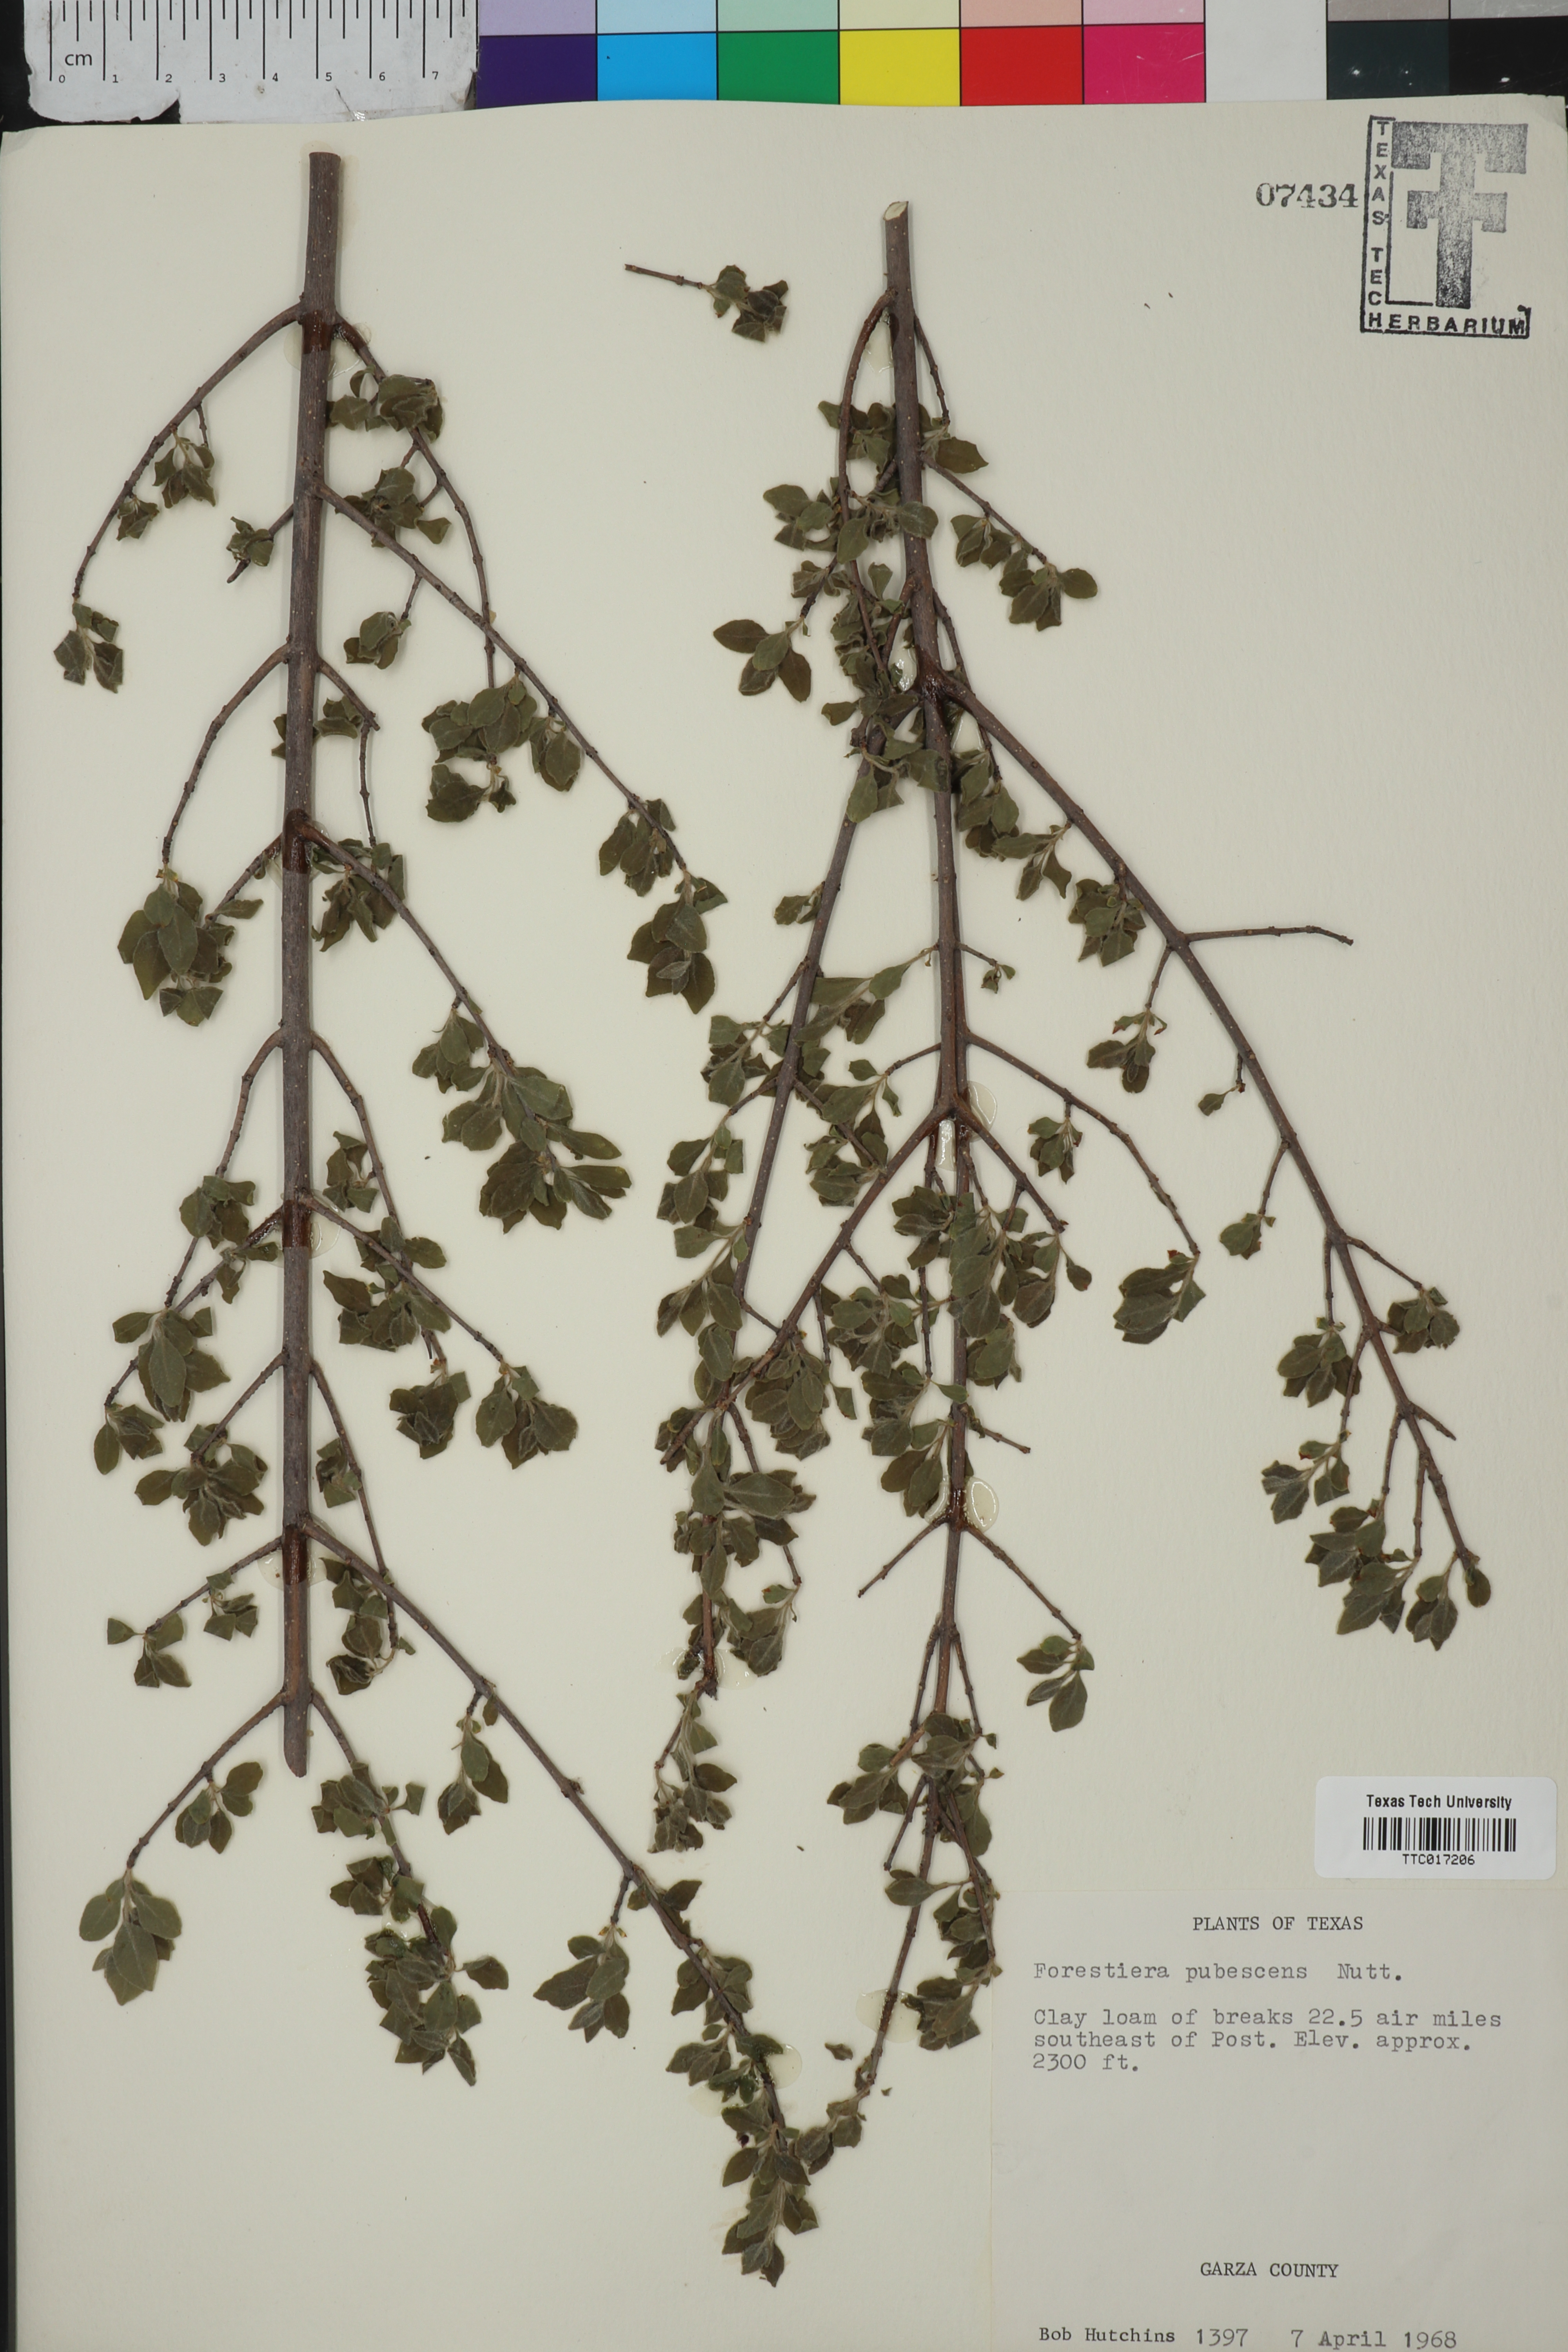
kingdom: Plantae
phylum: Tracheophyta
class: Magnoliopsida
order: Lamiales
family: Oleaceae
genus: Forestiera
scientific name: Forestiera pubescens
